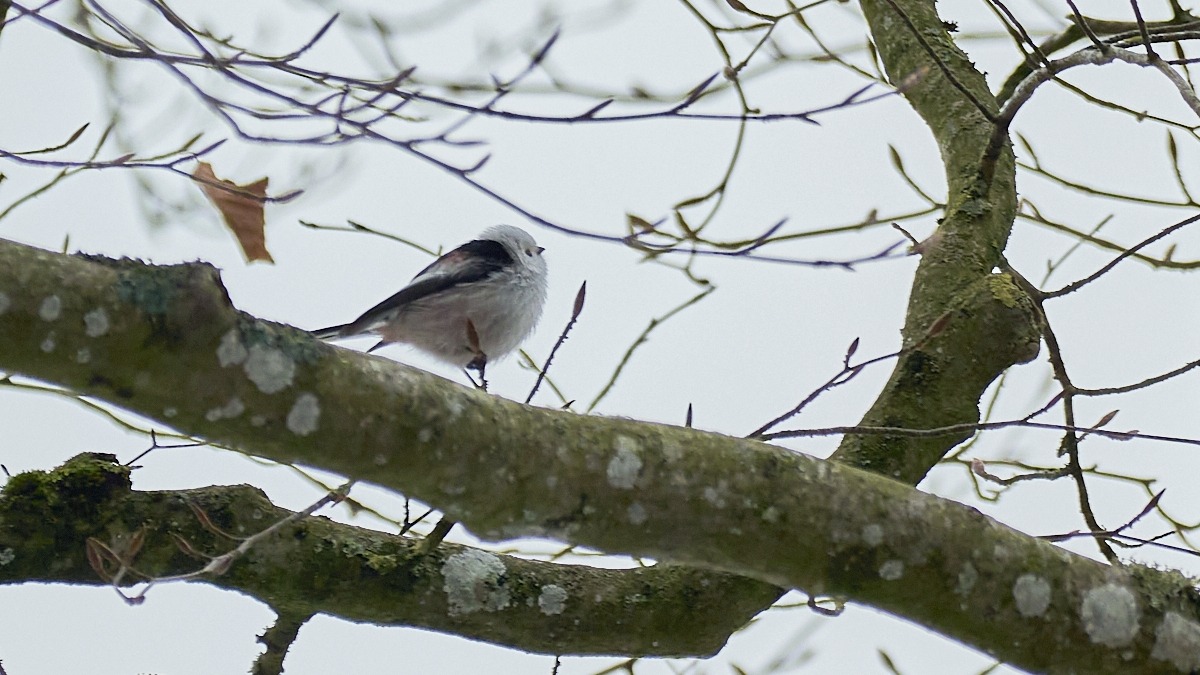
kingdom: Animalia
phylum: Chordata
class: Aves
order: Passeriformes
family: Aegithalidae
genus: Aegithalos
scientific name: Aegithalos caudatus
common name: Nordlig halemejse
